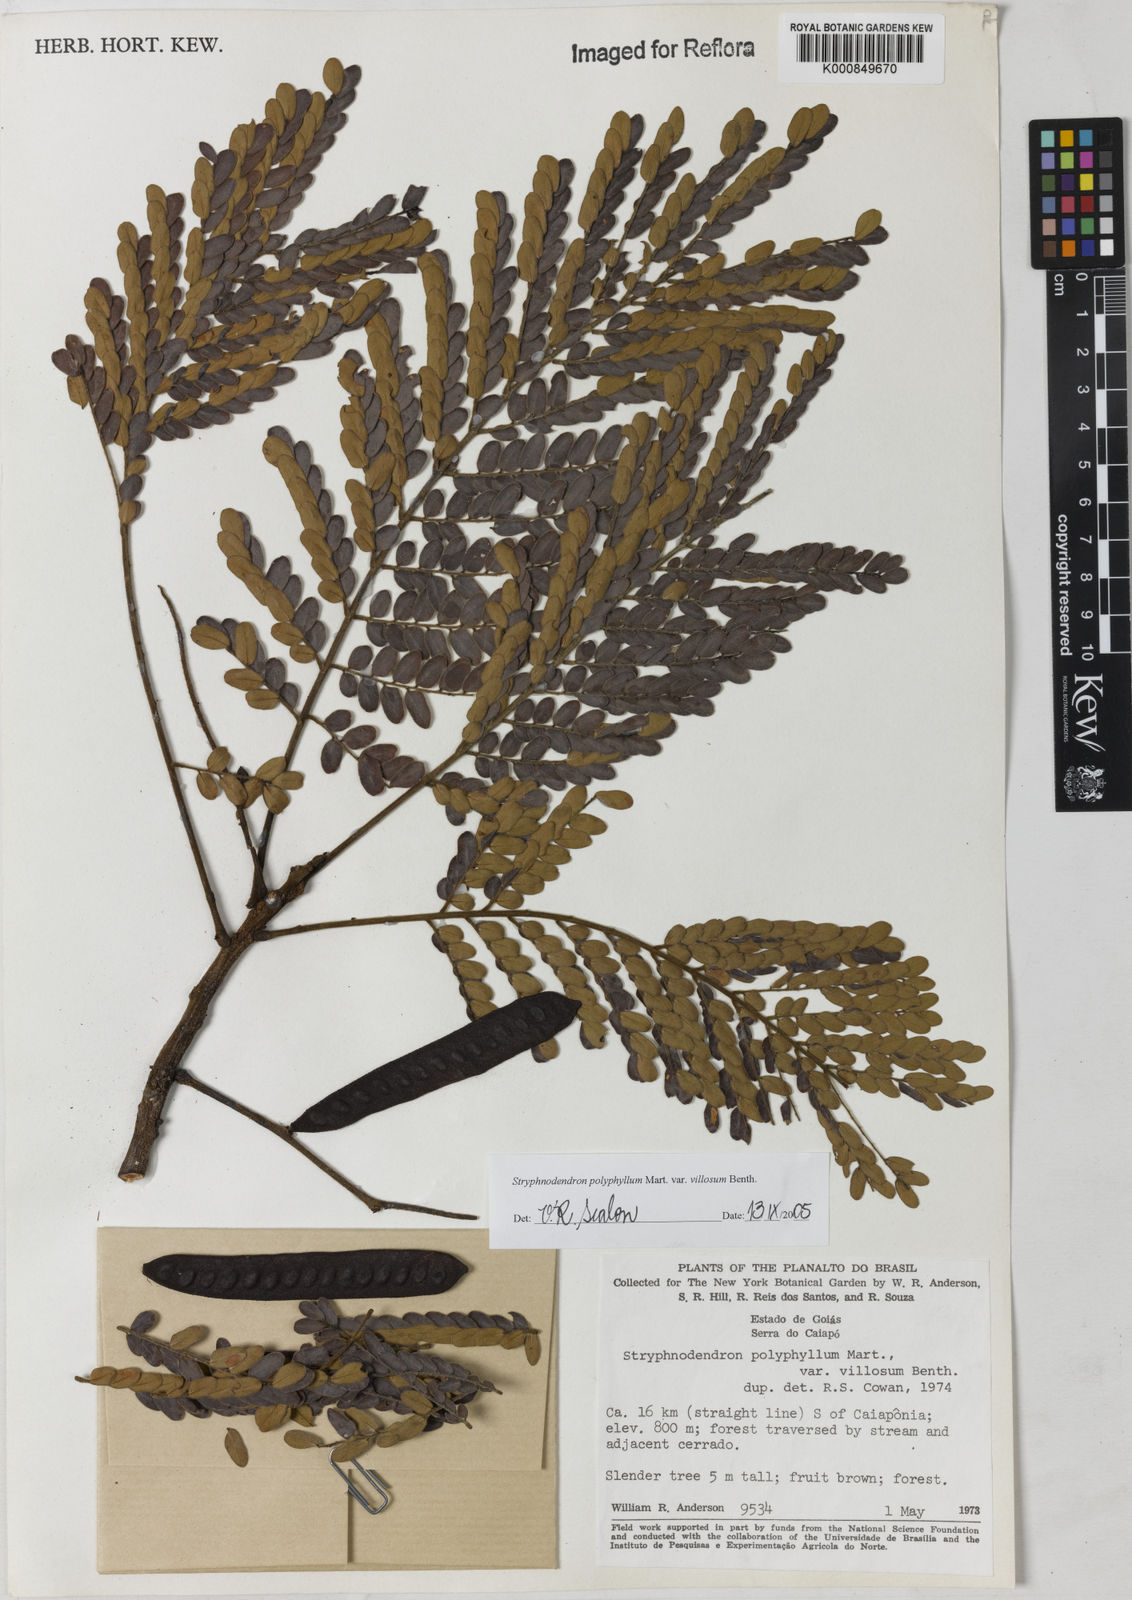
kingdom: Plantae
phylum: Tracheophyta
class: Magnoliopsida
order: Fabales
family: Fabaceae
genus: Stryphnodendron
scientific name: Stryphnodendron polyphyllum
